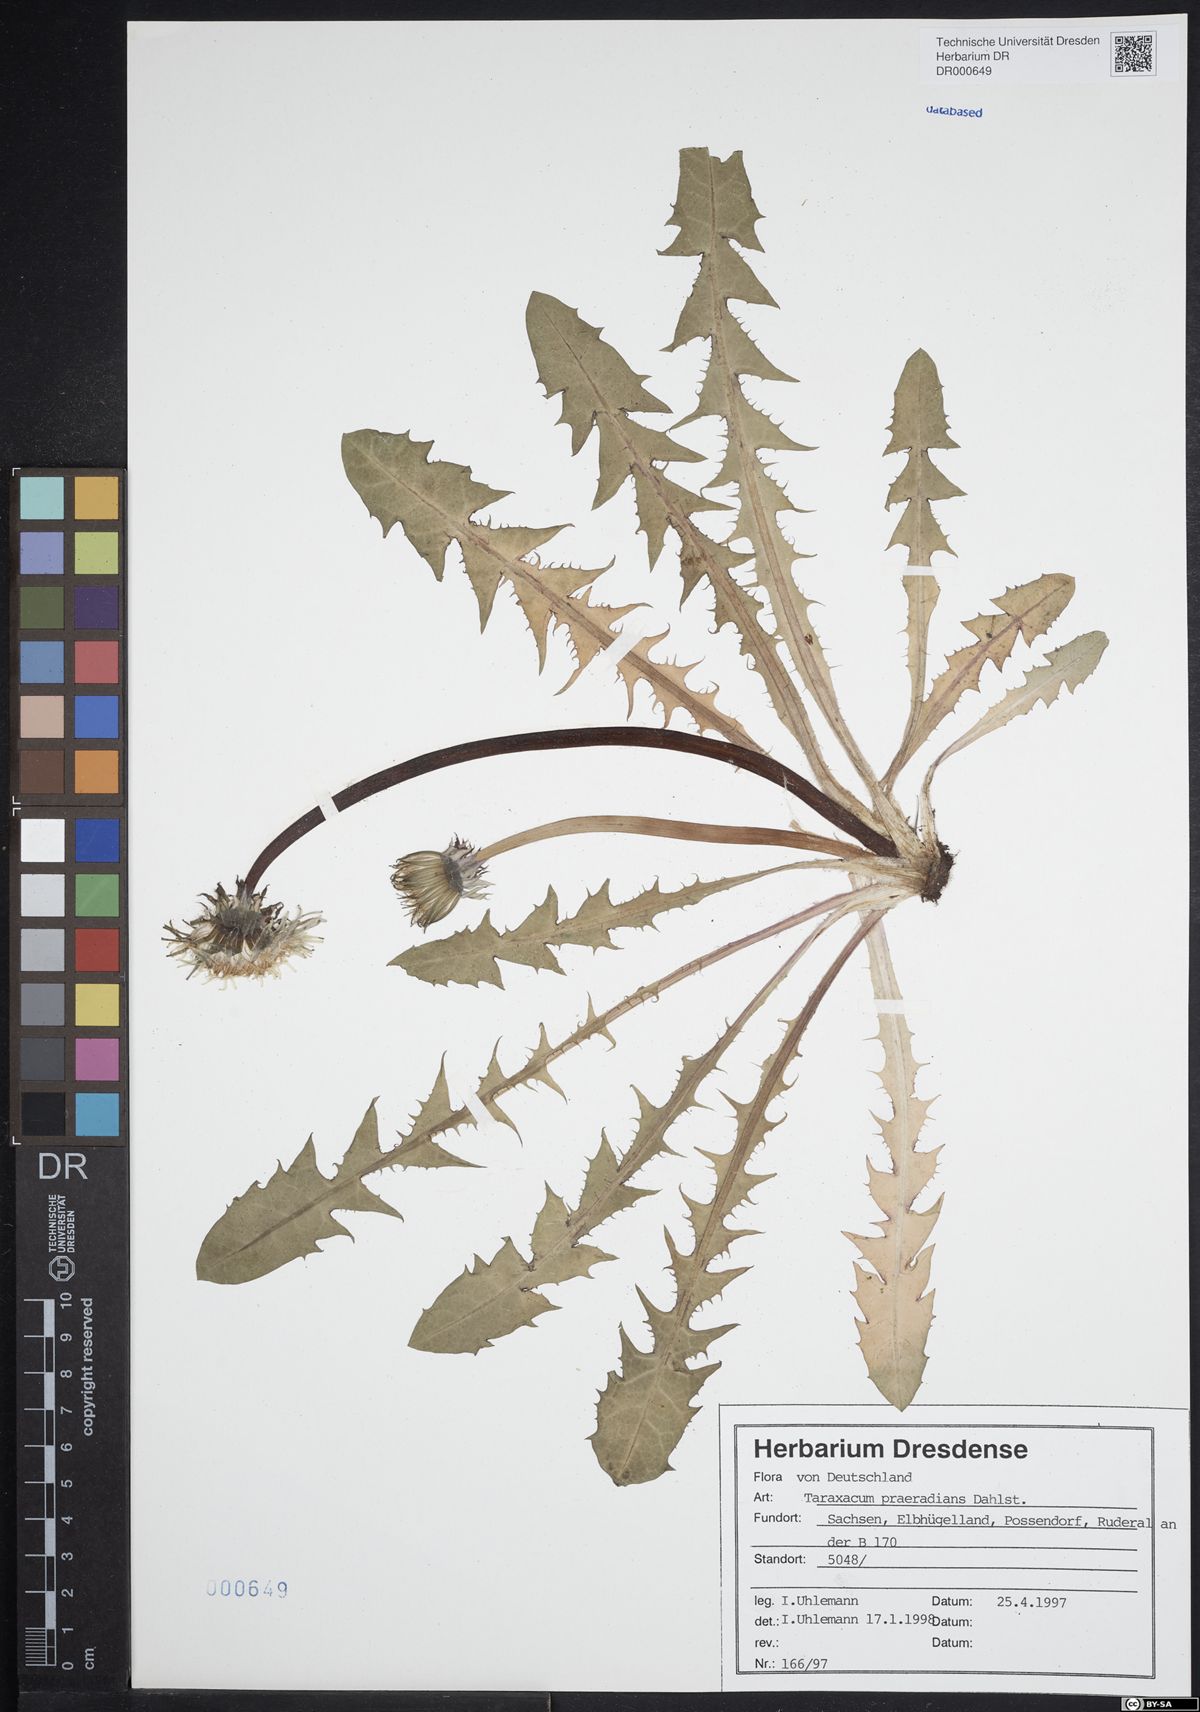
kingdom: Plantae
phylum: Tracheophyta
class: Magnoliopsida
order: Asterales
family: Asteraceae
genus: Taraxacum
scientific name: Taraxacum praeradians
